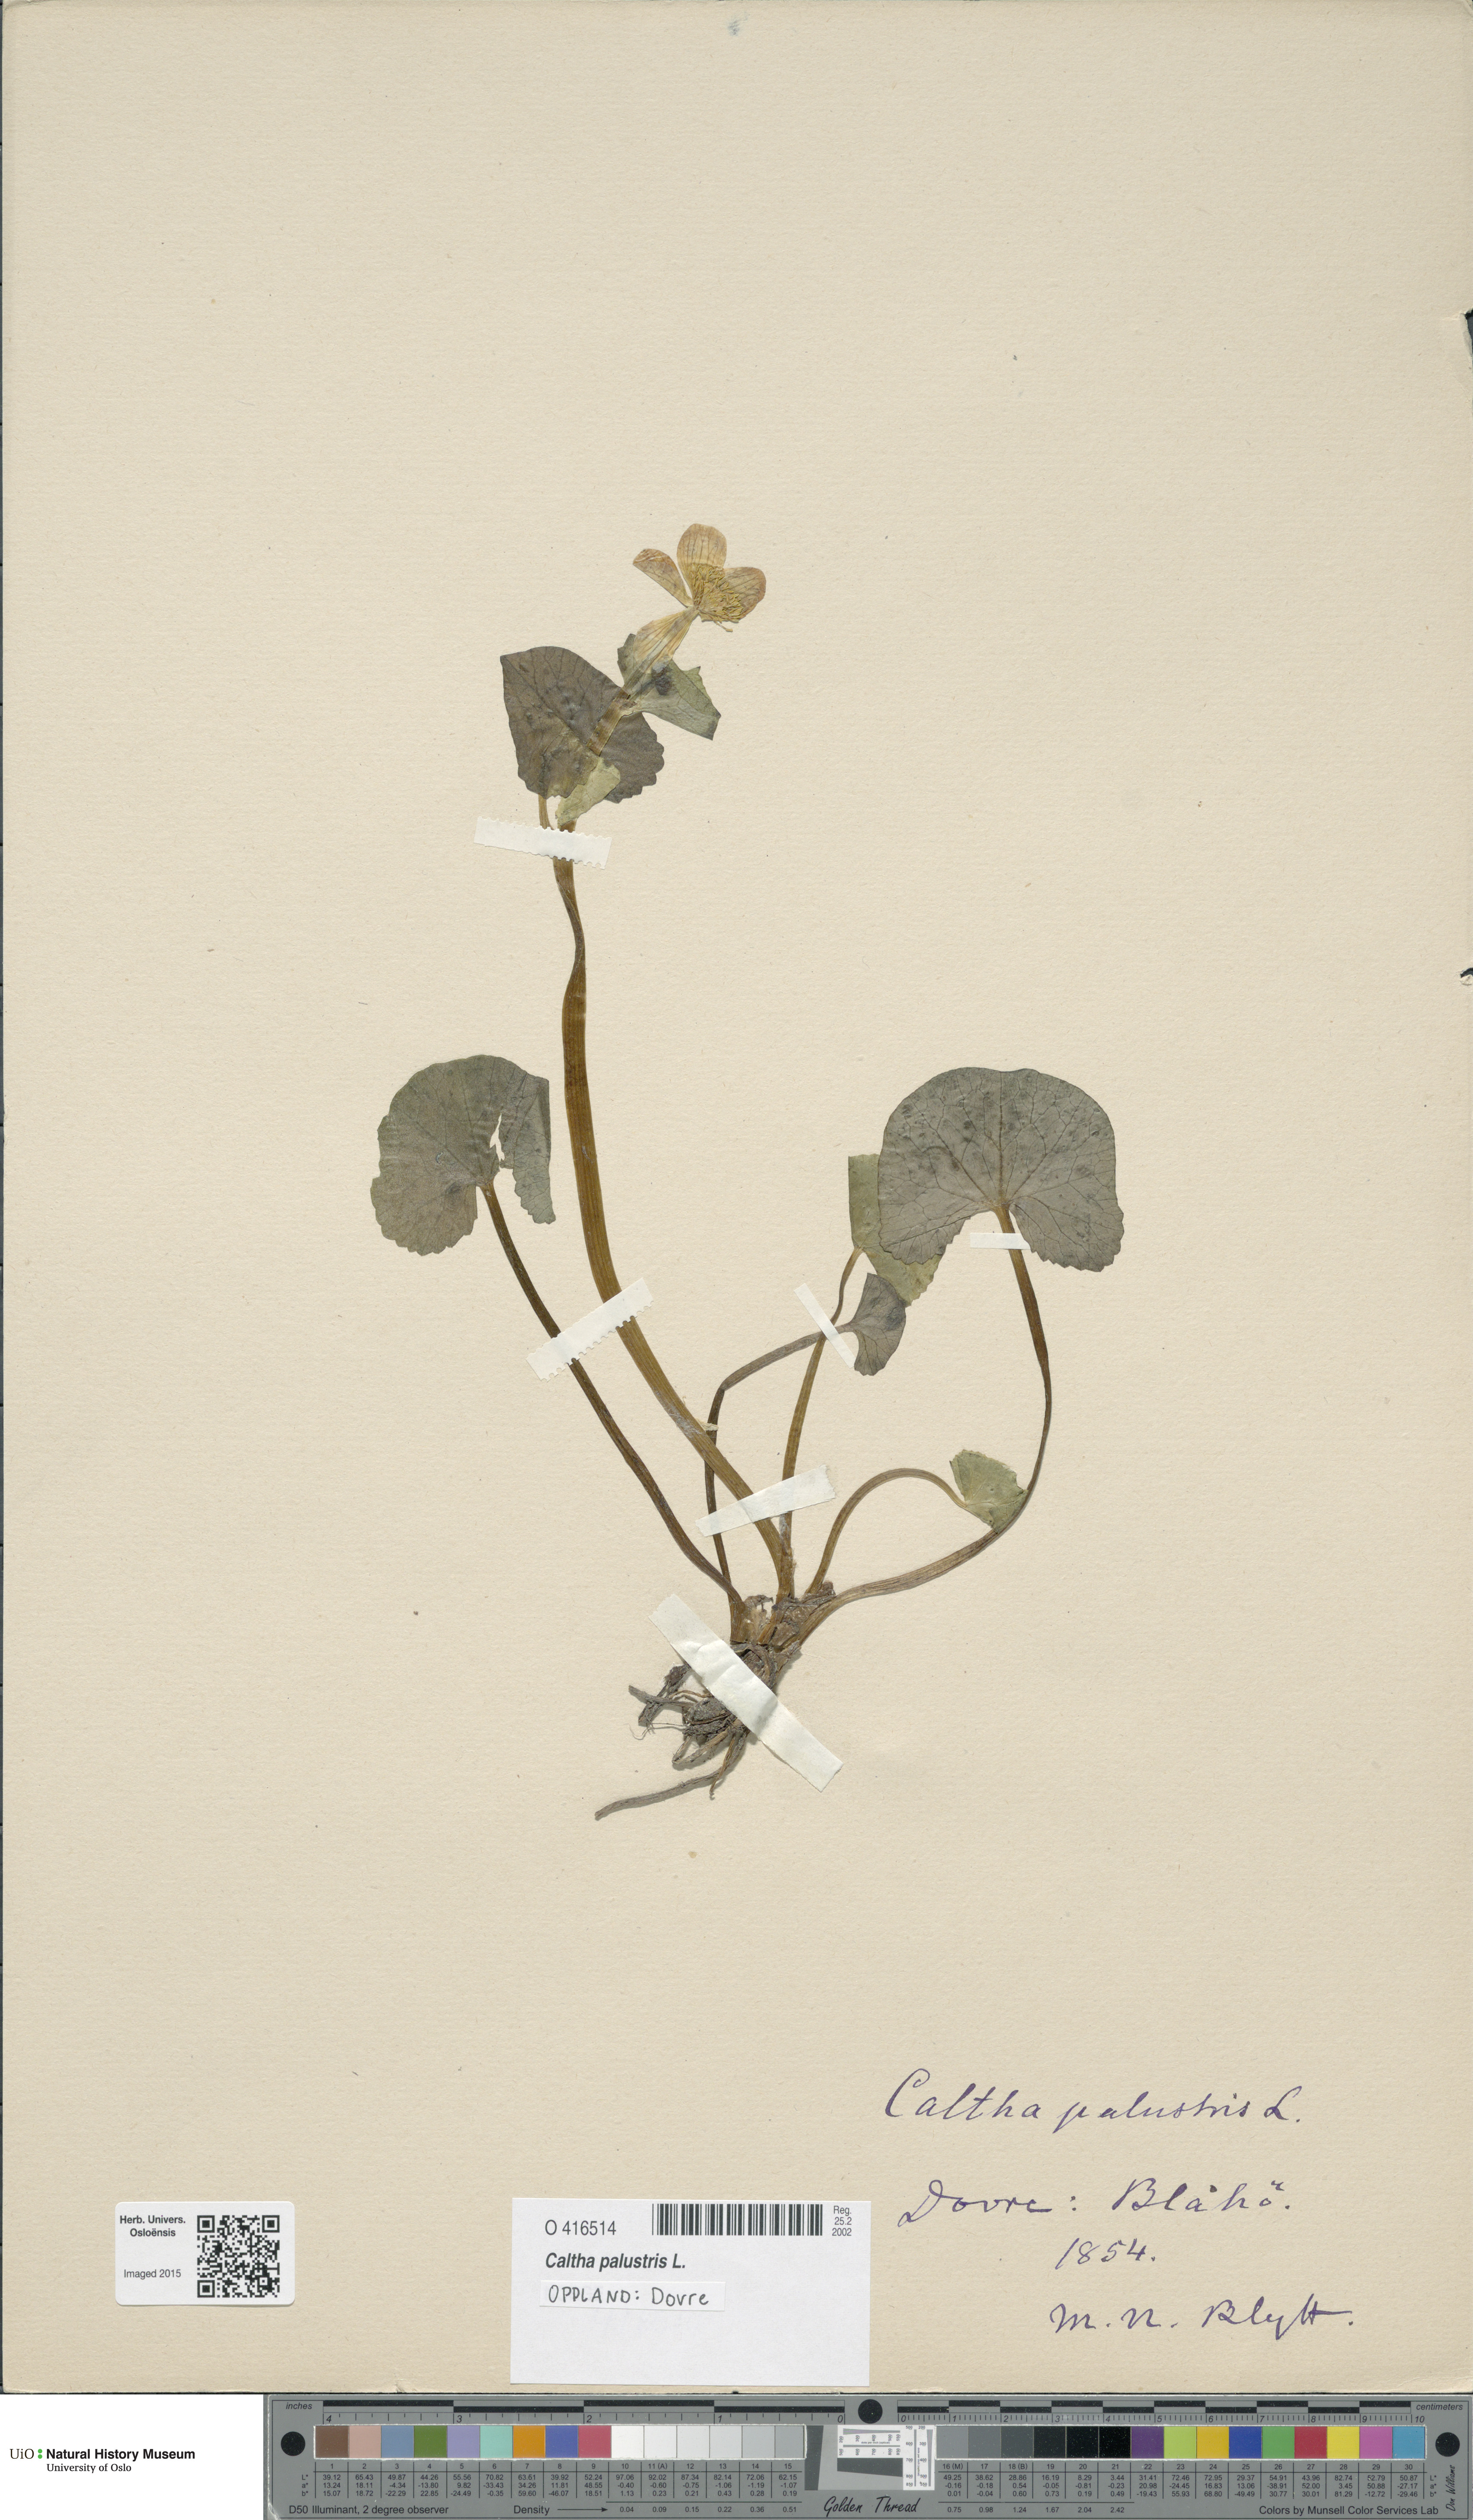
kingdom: Plantae
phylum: Tracheophyta
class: Magnoliopsida
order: Ranunculales
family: Ranunculaceae
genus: Caltha
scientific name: Caltha palustris
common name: Marsh marigold
